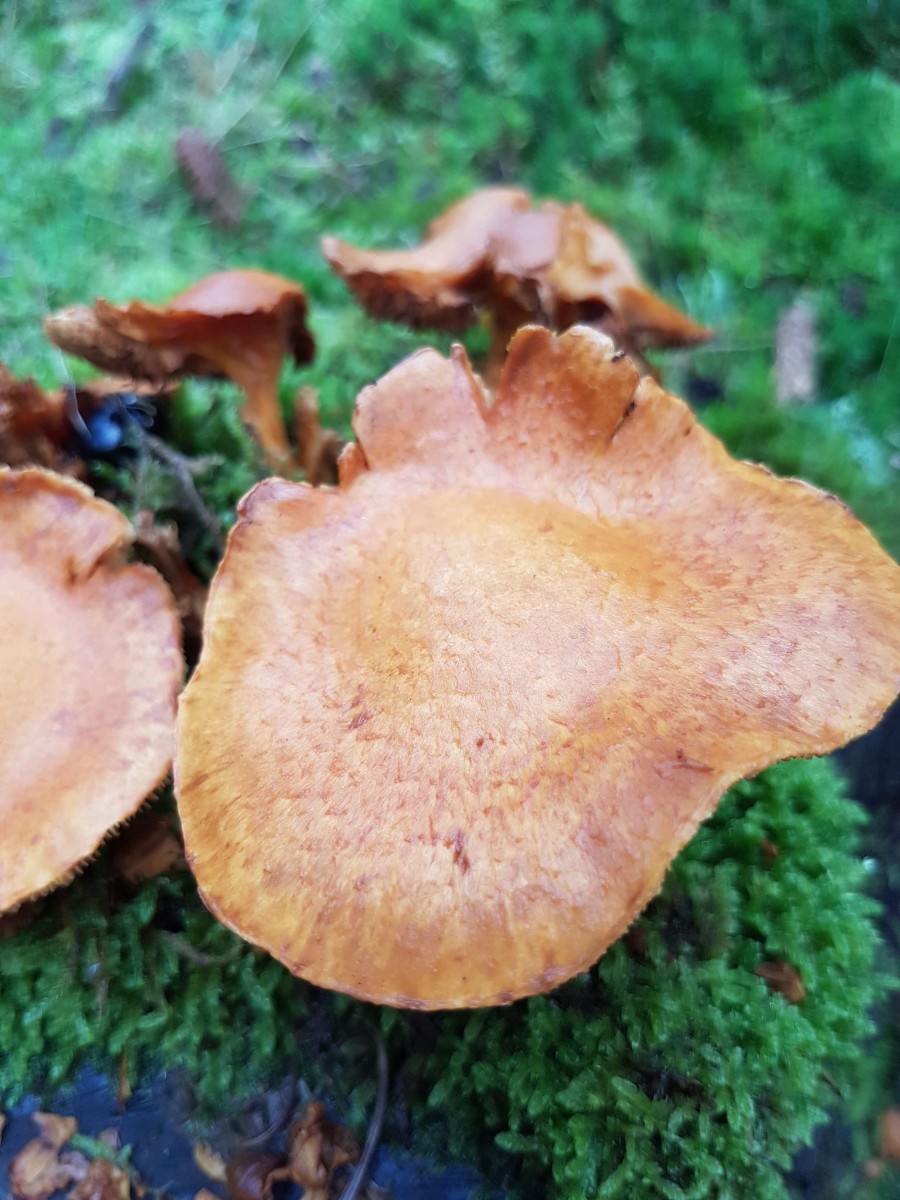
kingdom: Fungi
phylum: Basidiomycota
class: Agaricomycetes
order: Agaricales
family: Hymenogastraceae
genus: Gymnopilus
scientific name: Gymnopilus spectabilis
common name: fibret flammehat
